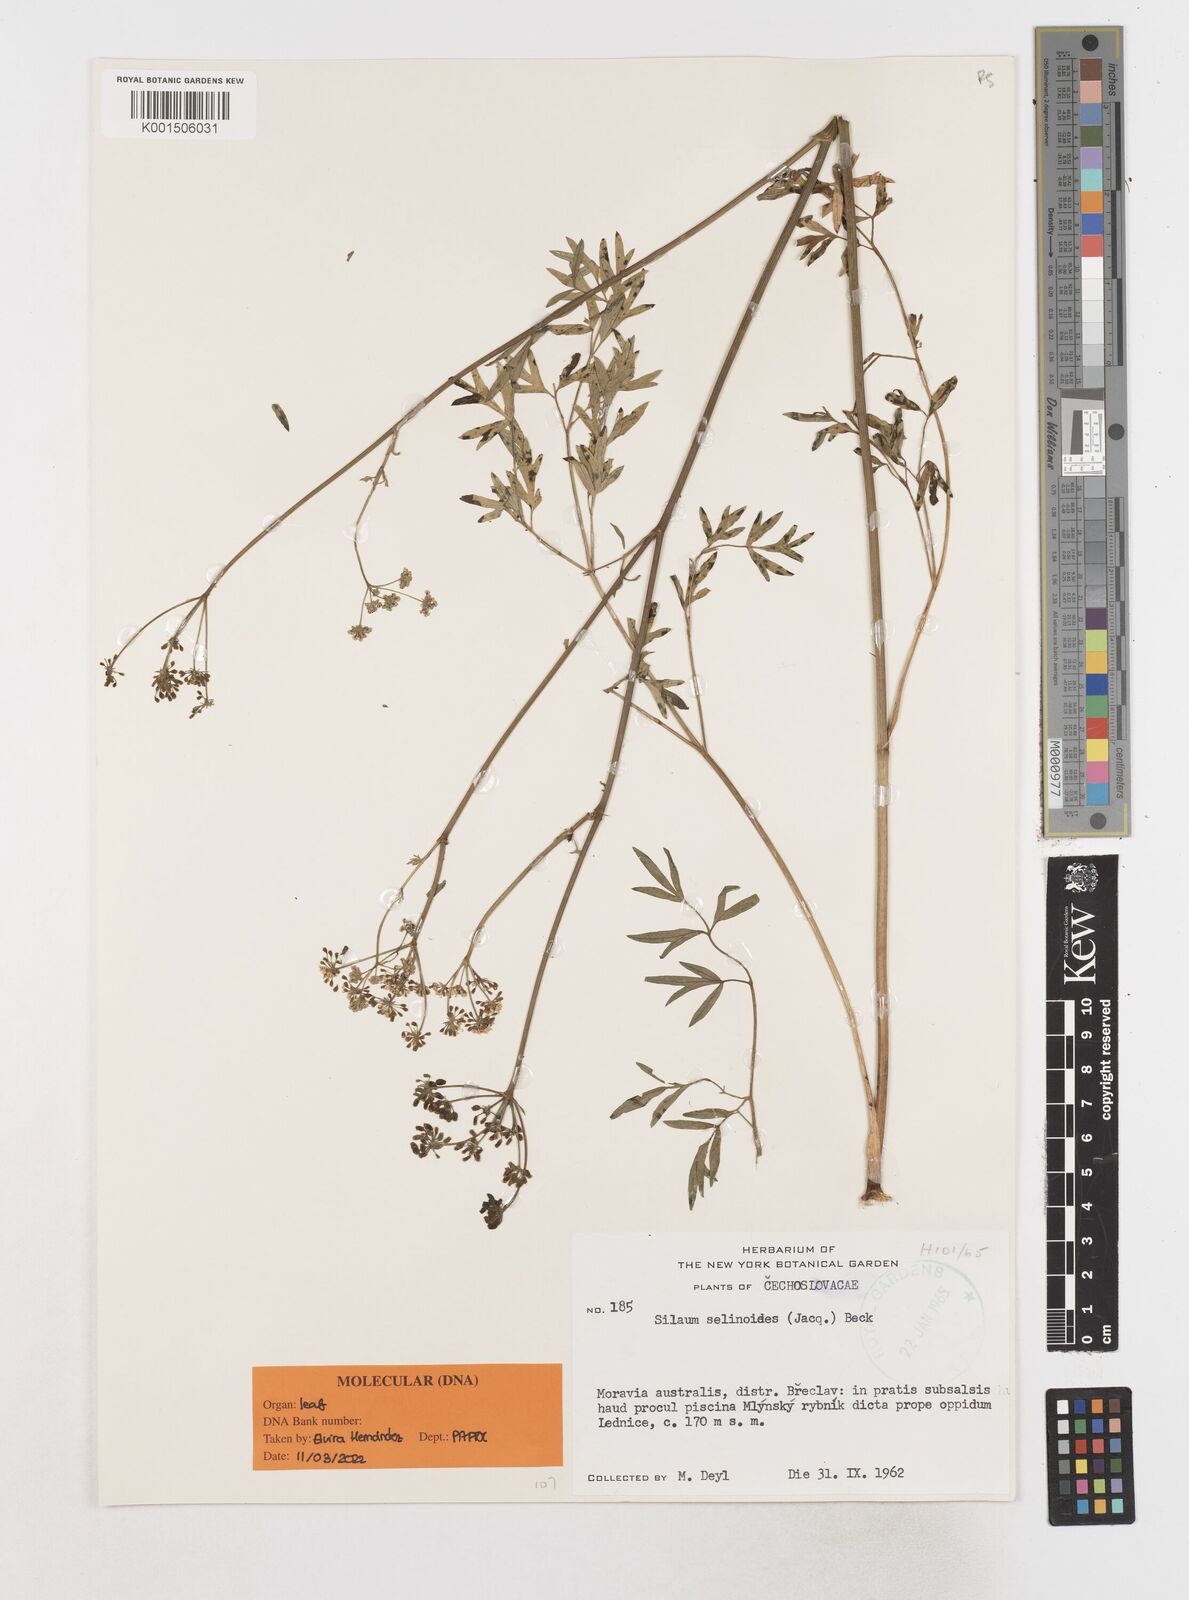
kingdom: Plantae
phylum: Tracheophyta
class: Magnoliopsida
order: Apiales
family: Apiaceae
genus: Silaum
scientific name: Silaum silaus
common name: Pepper-saxifrage
